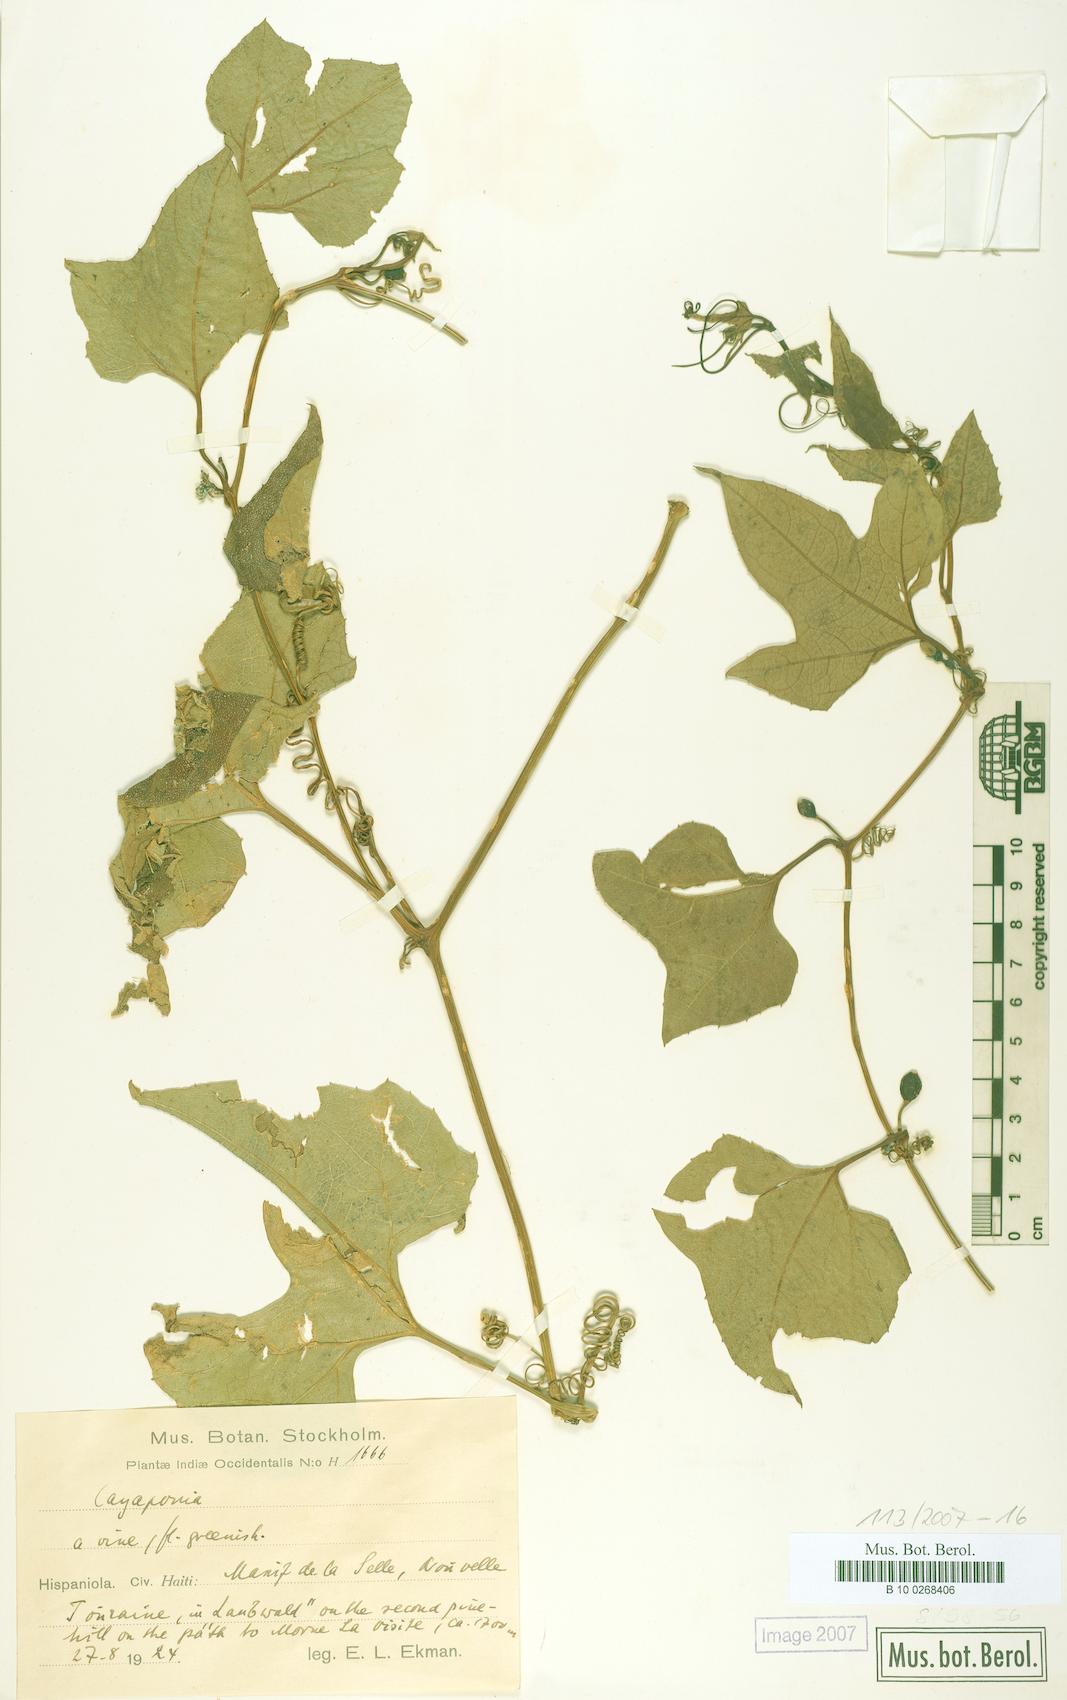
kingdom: Plantae
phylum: Tracheophyta
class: Magnoliopsida
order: Cucurbitales
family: Cucurbitaceae
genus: Cayaponia
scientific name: Cayaponia americana
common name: American melonleaf
